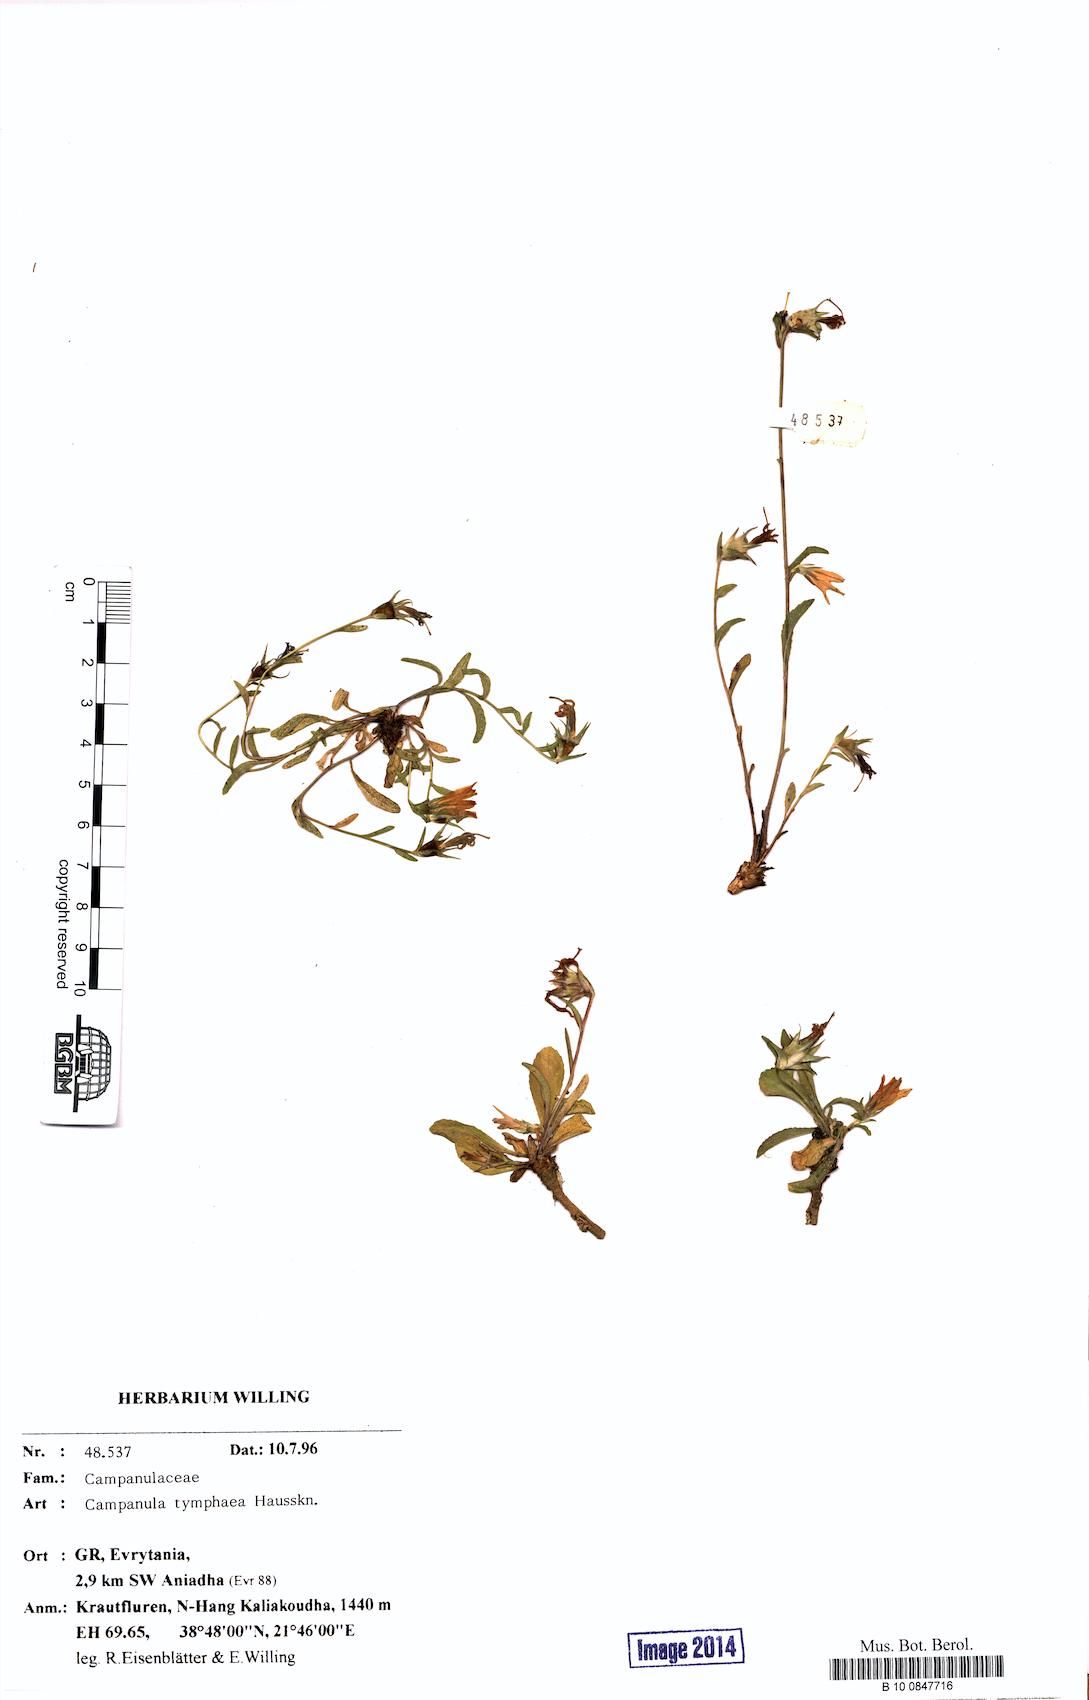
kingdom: Plantae
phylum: Tracheophyta
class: Magnoliopsida
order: Asterales
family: Campanulaceae
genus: Campanula
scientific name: Campanula tymphaea
